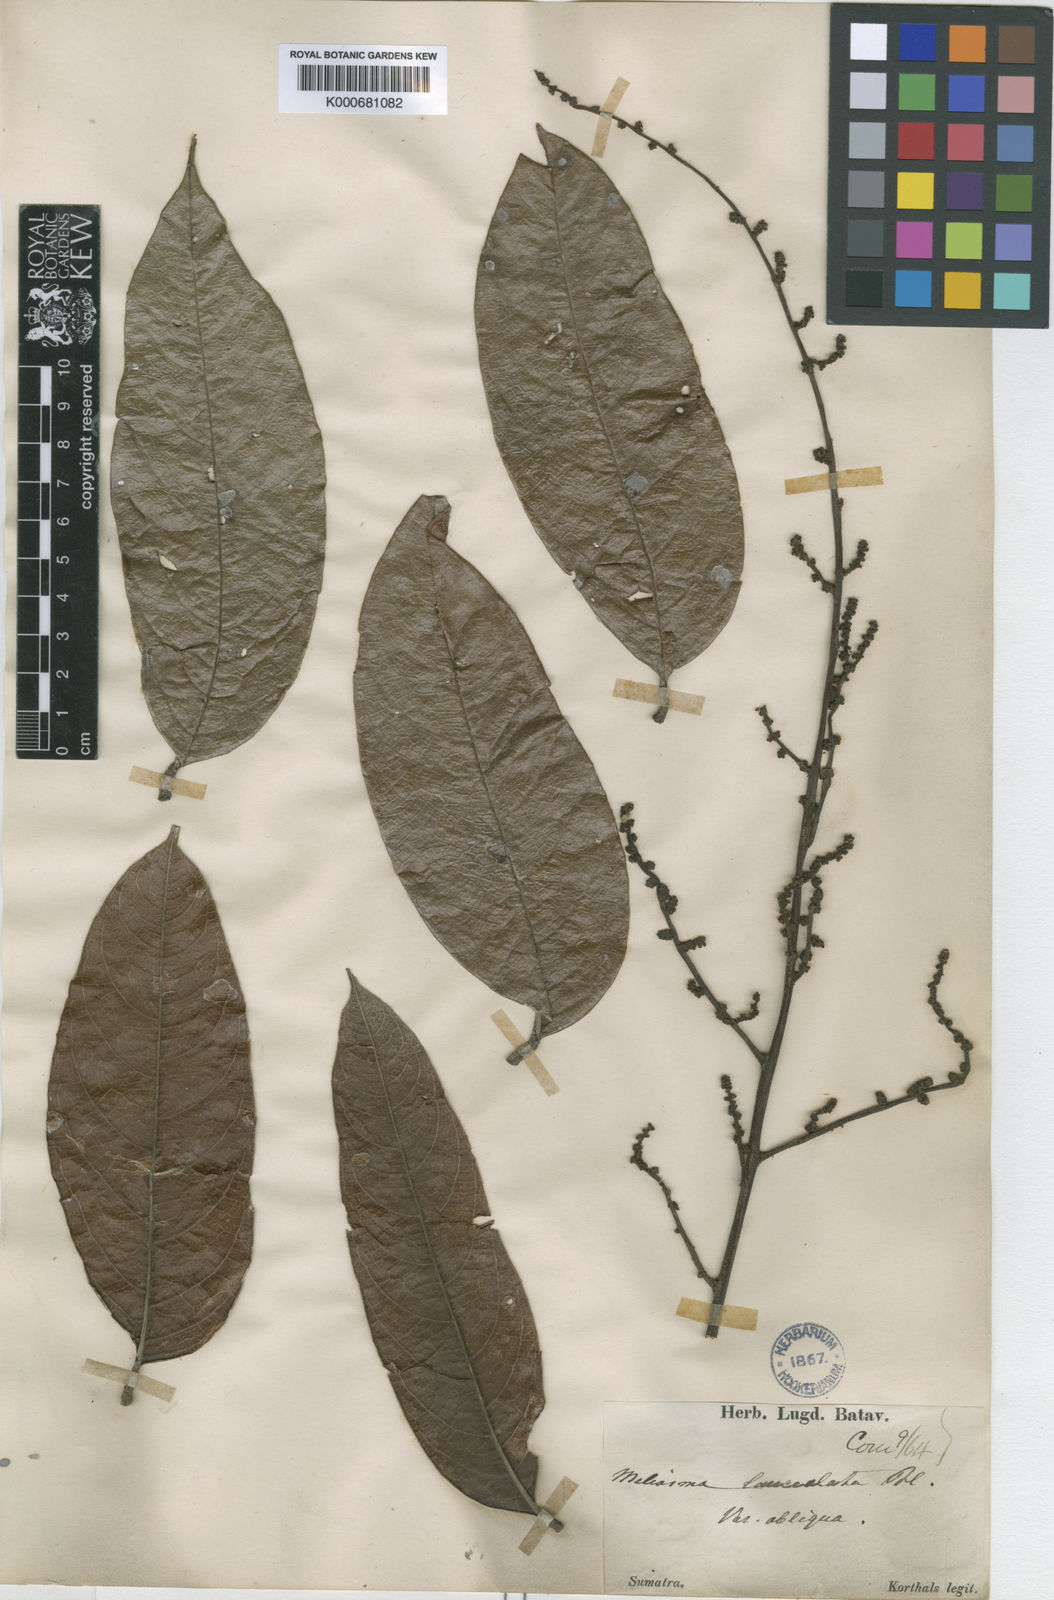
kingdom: Plantae
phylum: Tracheophyta
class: Magnoliopsida
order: Proteales
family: Sabiaceae
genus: Meliosma
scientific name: Meliosma lanceolata
